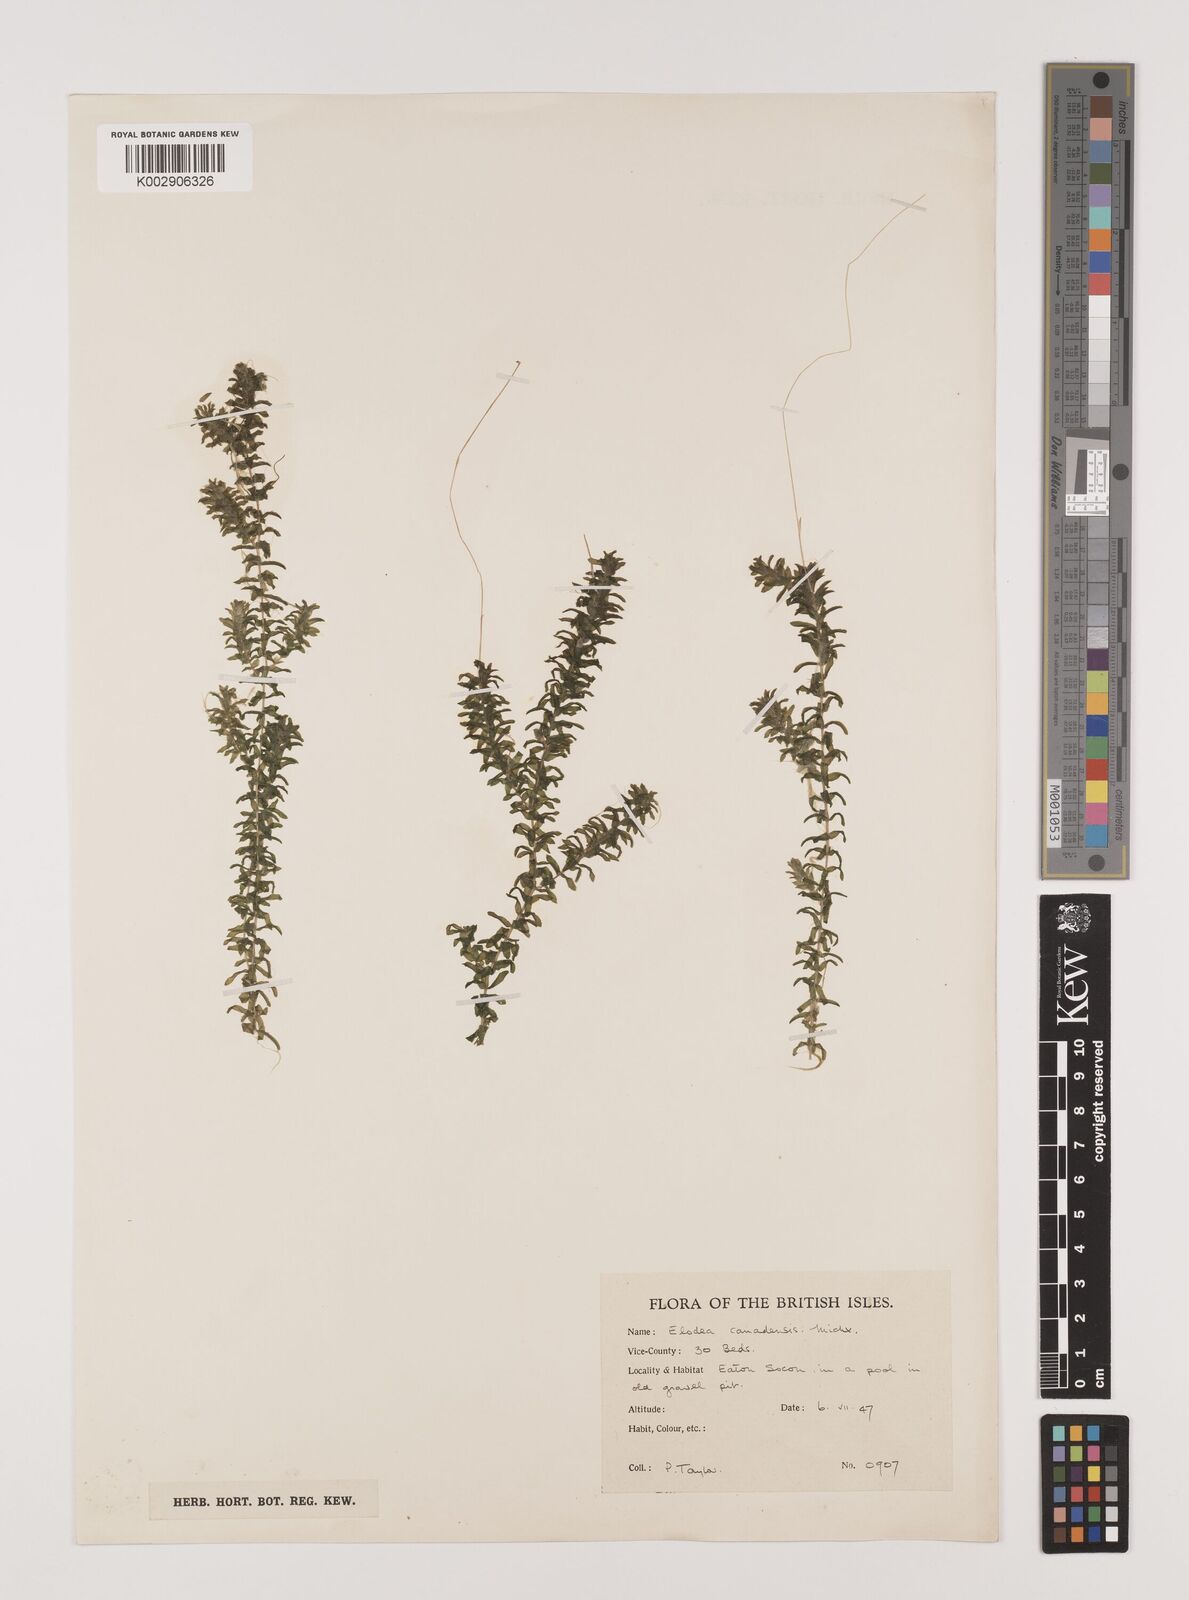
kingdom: Plantae
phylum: Tracheophyta
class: Liliopsida
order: Alismatales
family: Hydrocharitaceae
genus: Elodea
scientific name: Elodea canadensis
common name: Canadian waterweed
